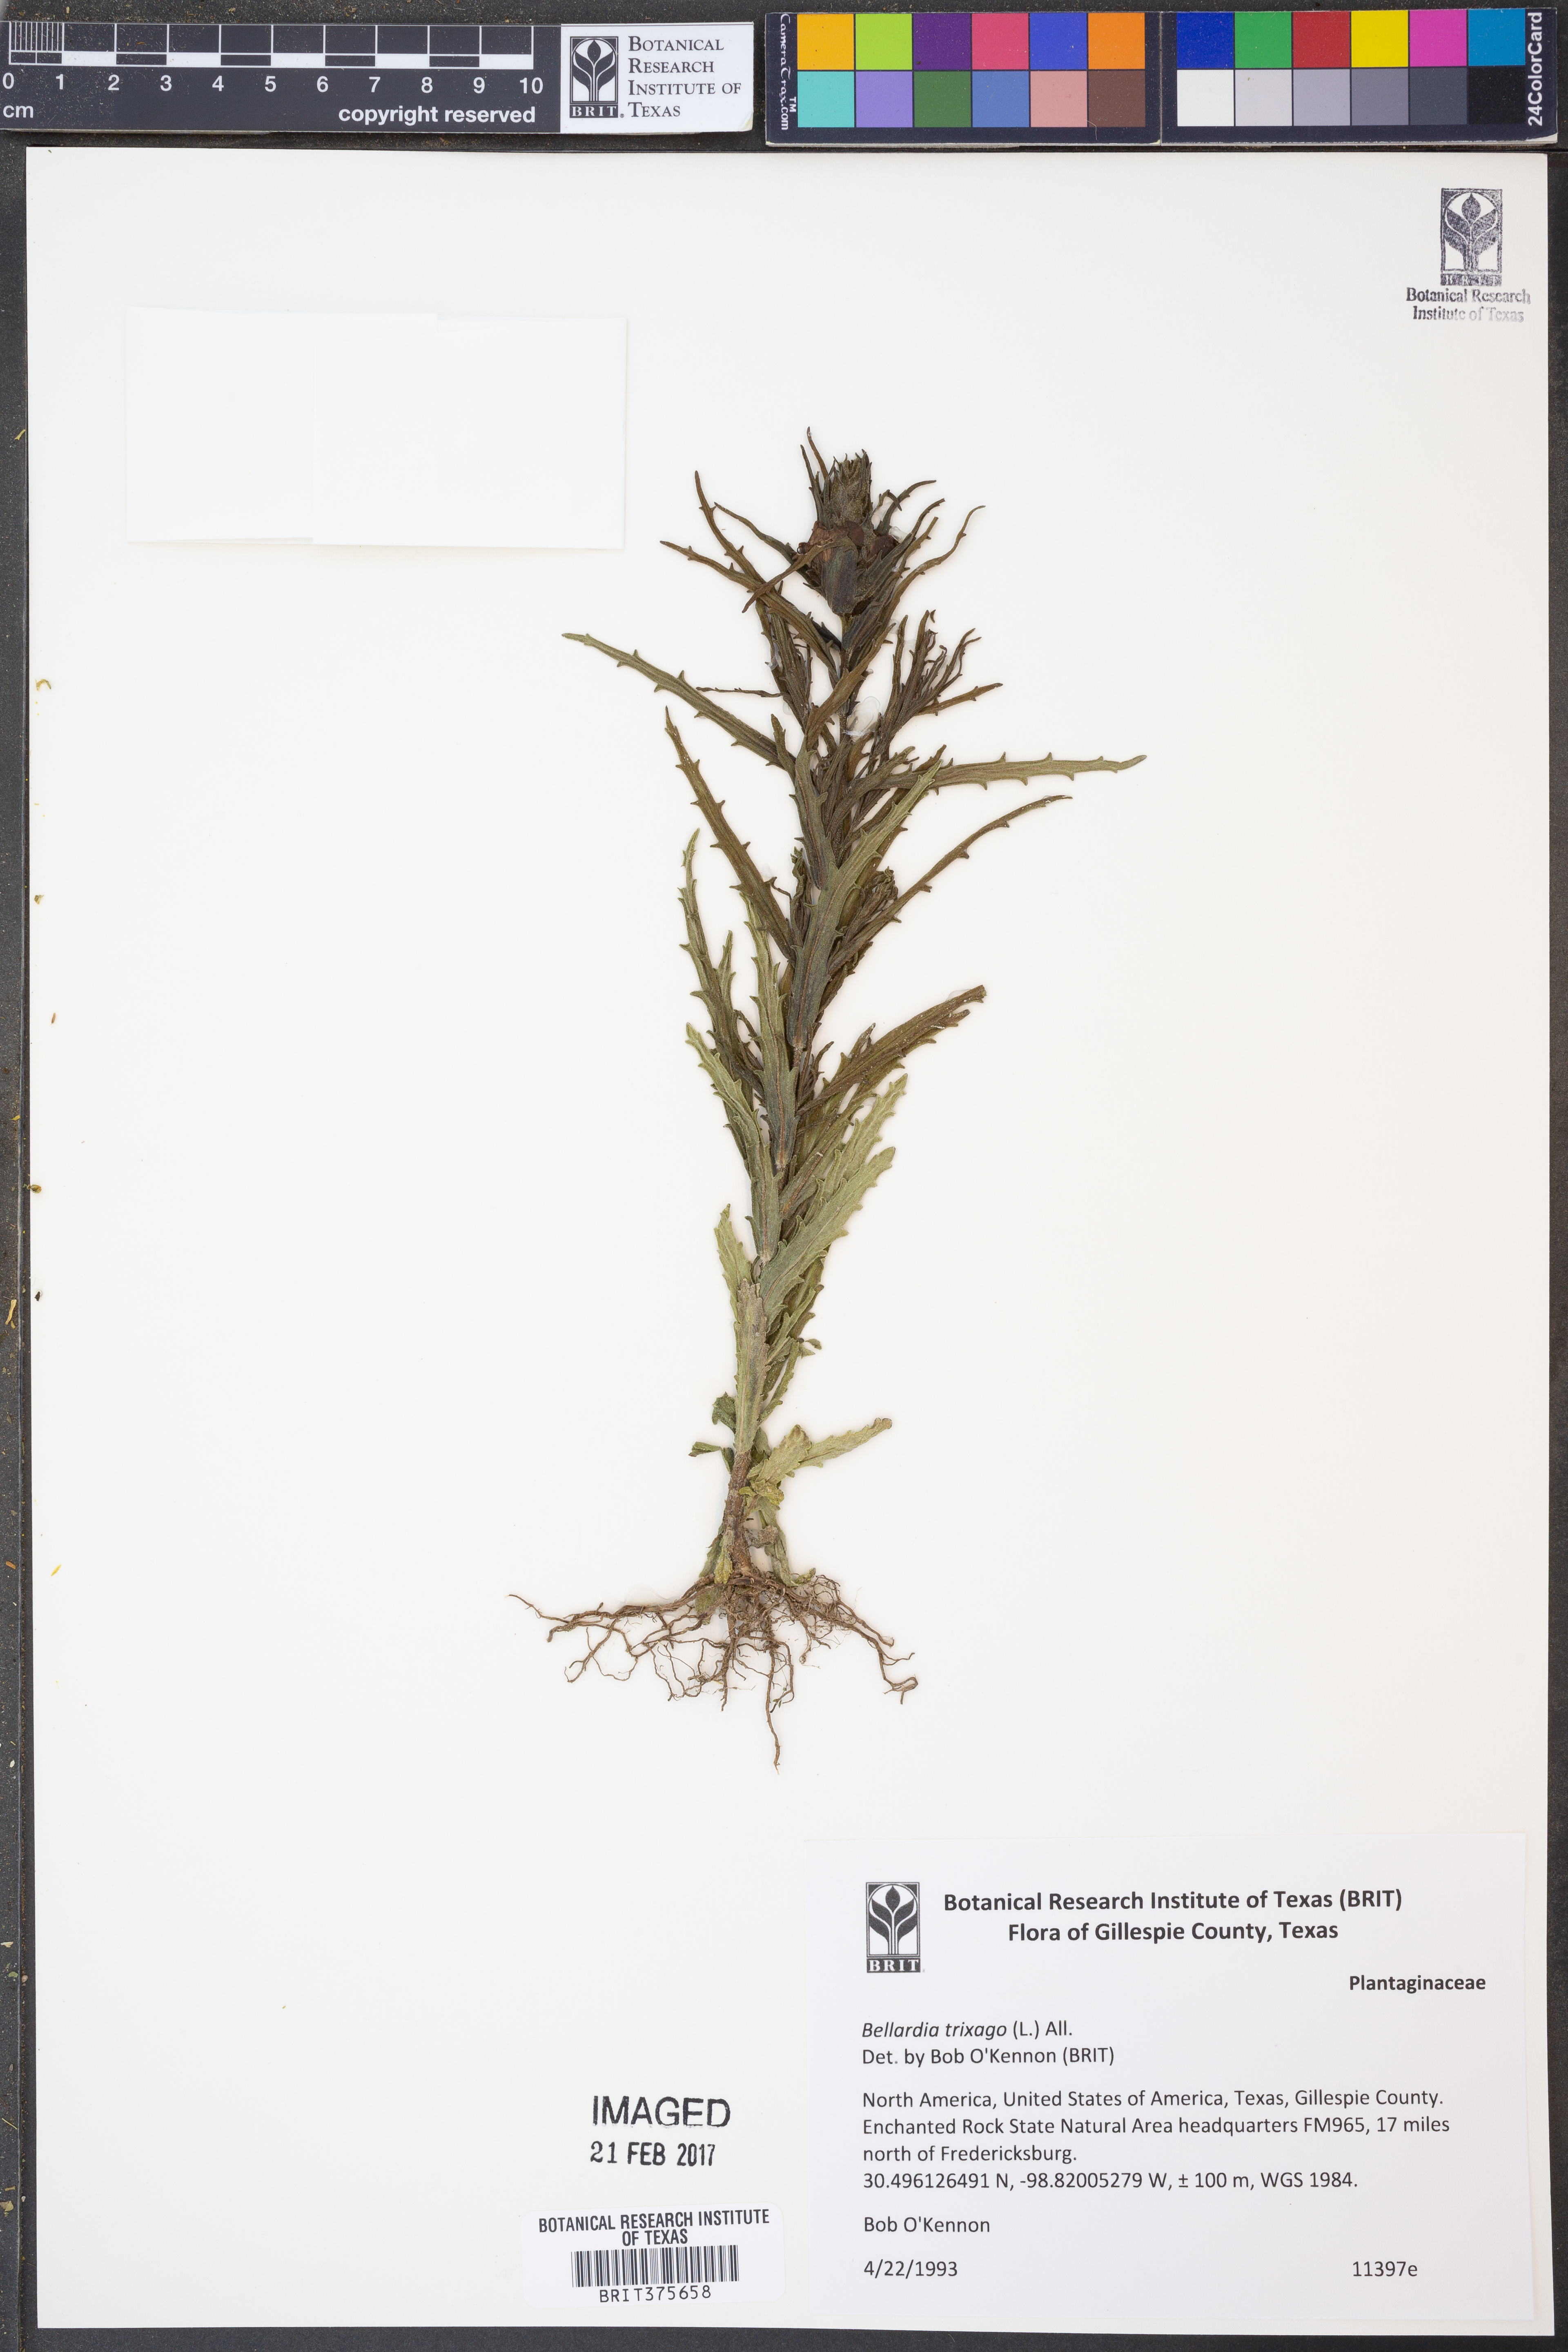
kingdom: Plantae
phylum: Tracheophyta
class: Magnoliopsida
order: Lamiales
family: Orobanchaceae
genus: Bellardia
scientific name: Bellardia trixago
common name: Mediterranean lineseed
